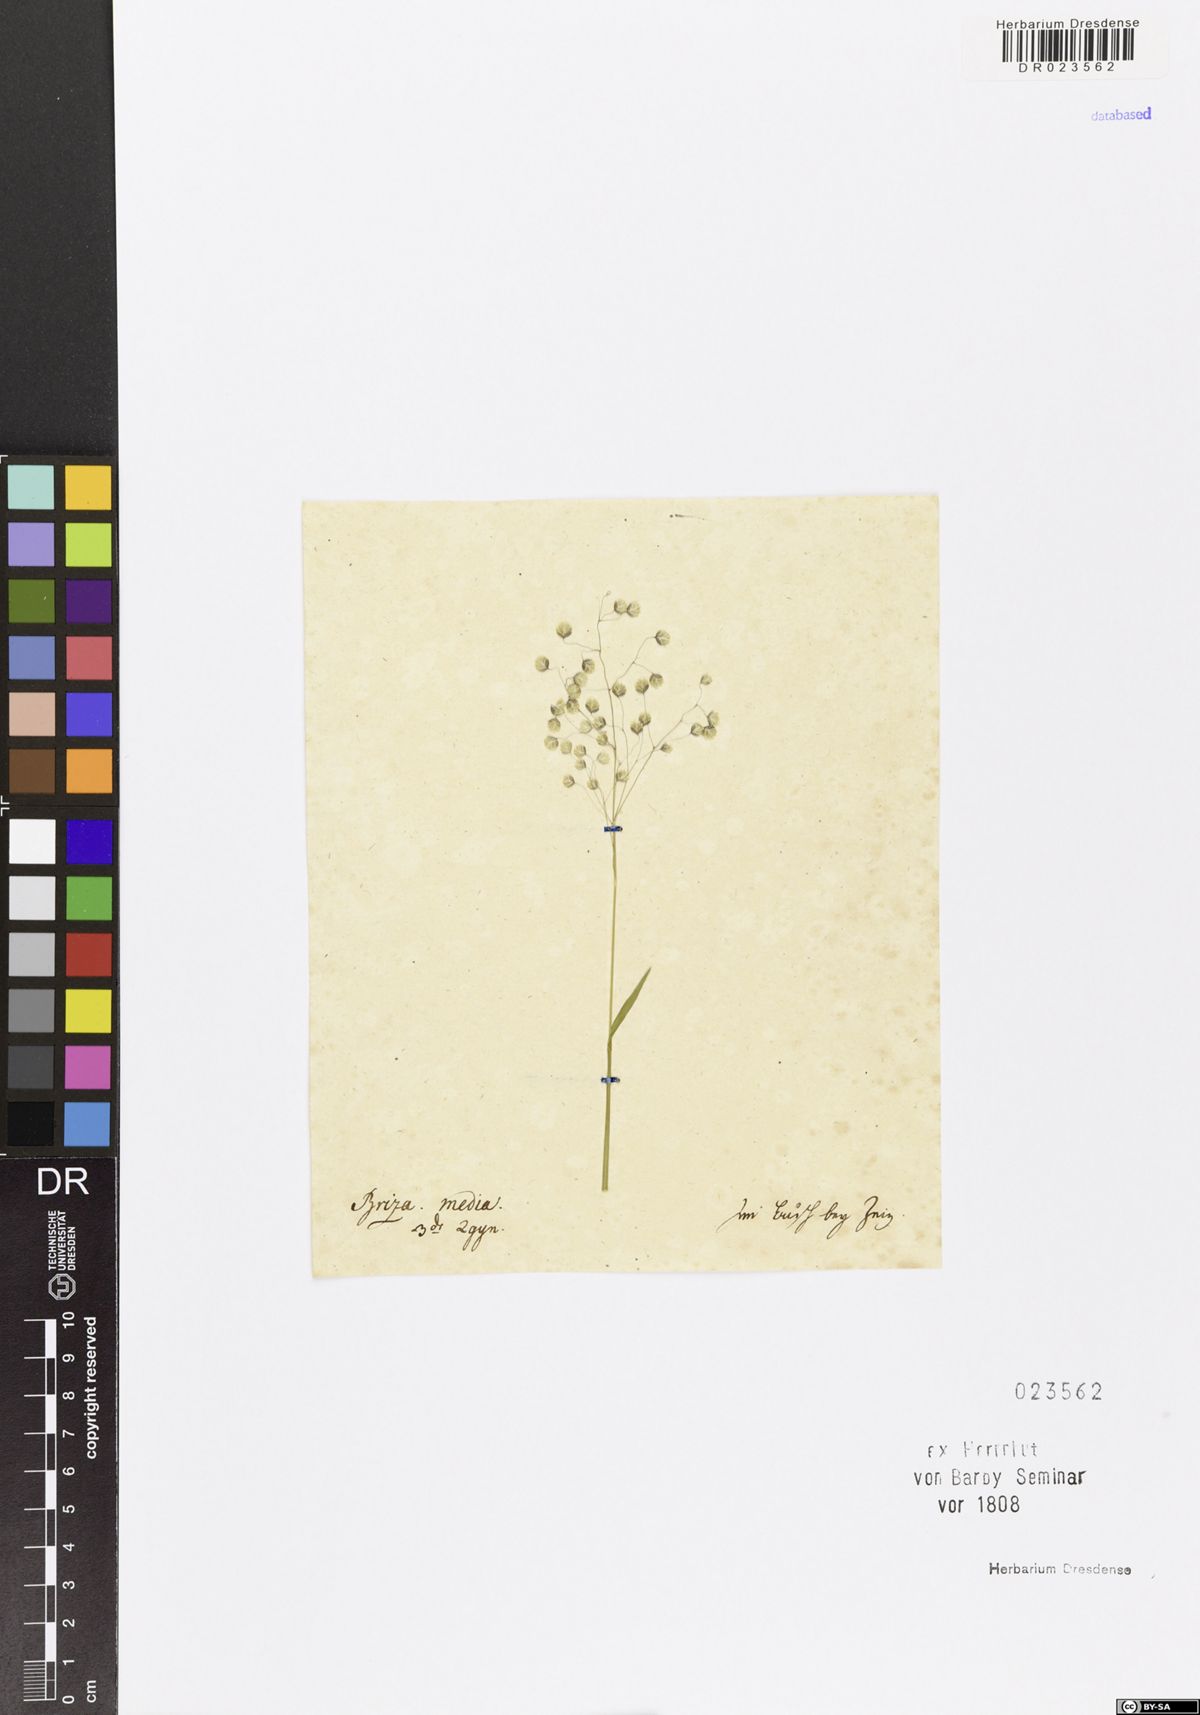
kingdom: Plantae
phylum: Tracheophyta
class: Liliopsida
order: Poales
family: Poaceae
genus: Briza
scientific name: Briza media
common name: Quaking grass
